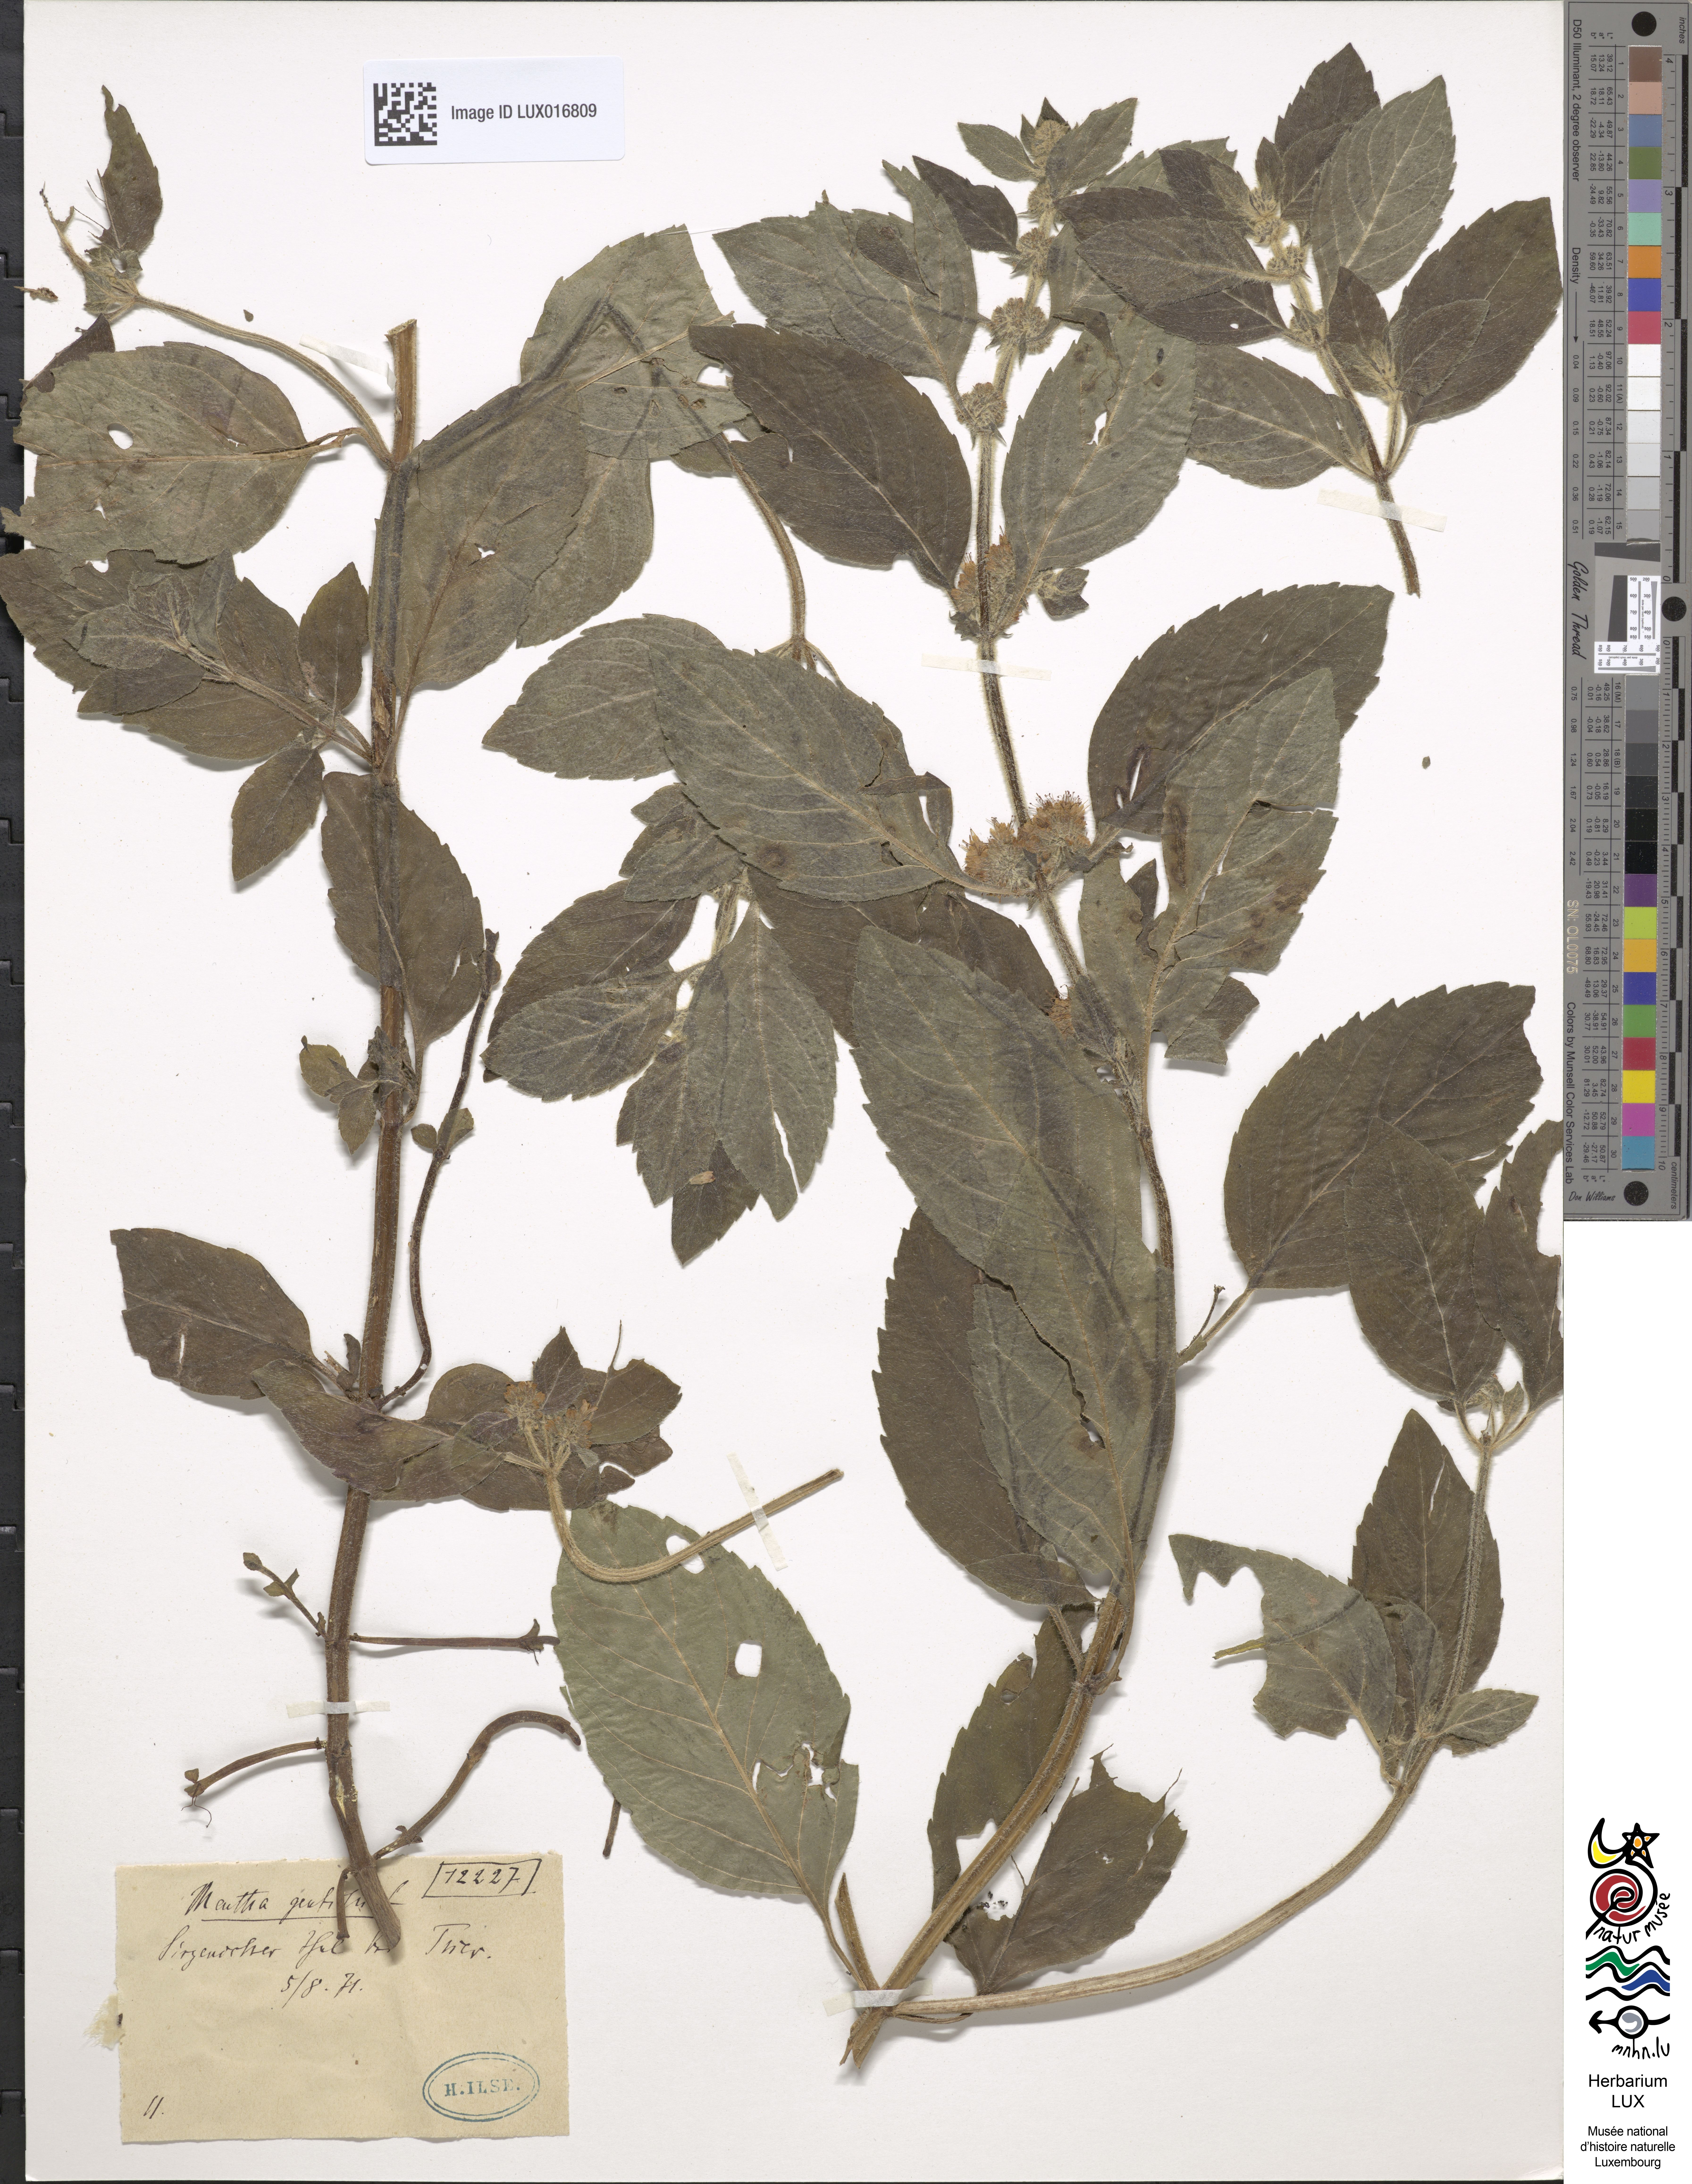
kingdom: Plantae
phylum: Tracheophyta
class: Magnoliopsida
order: Lamiales
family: Lamiaceae
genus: Mentha
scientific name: Mentha arvensis
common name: Corn mint
